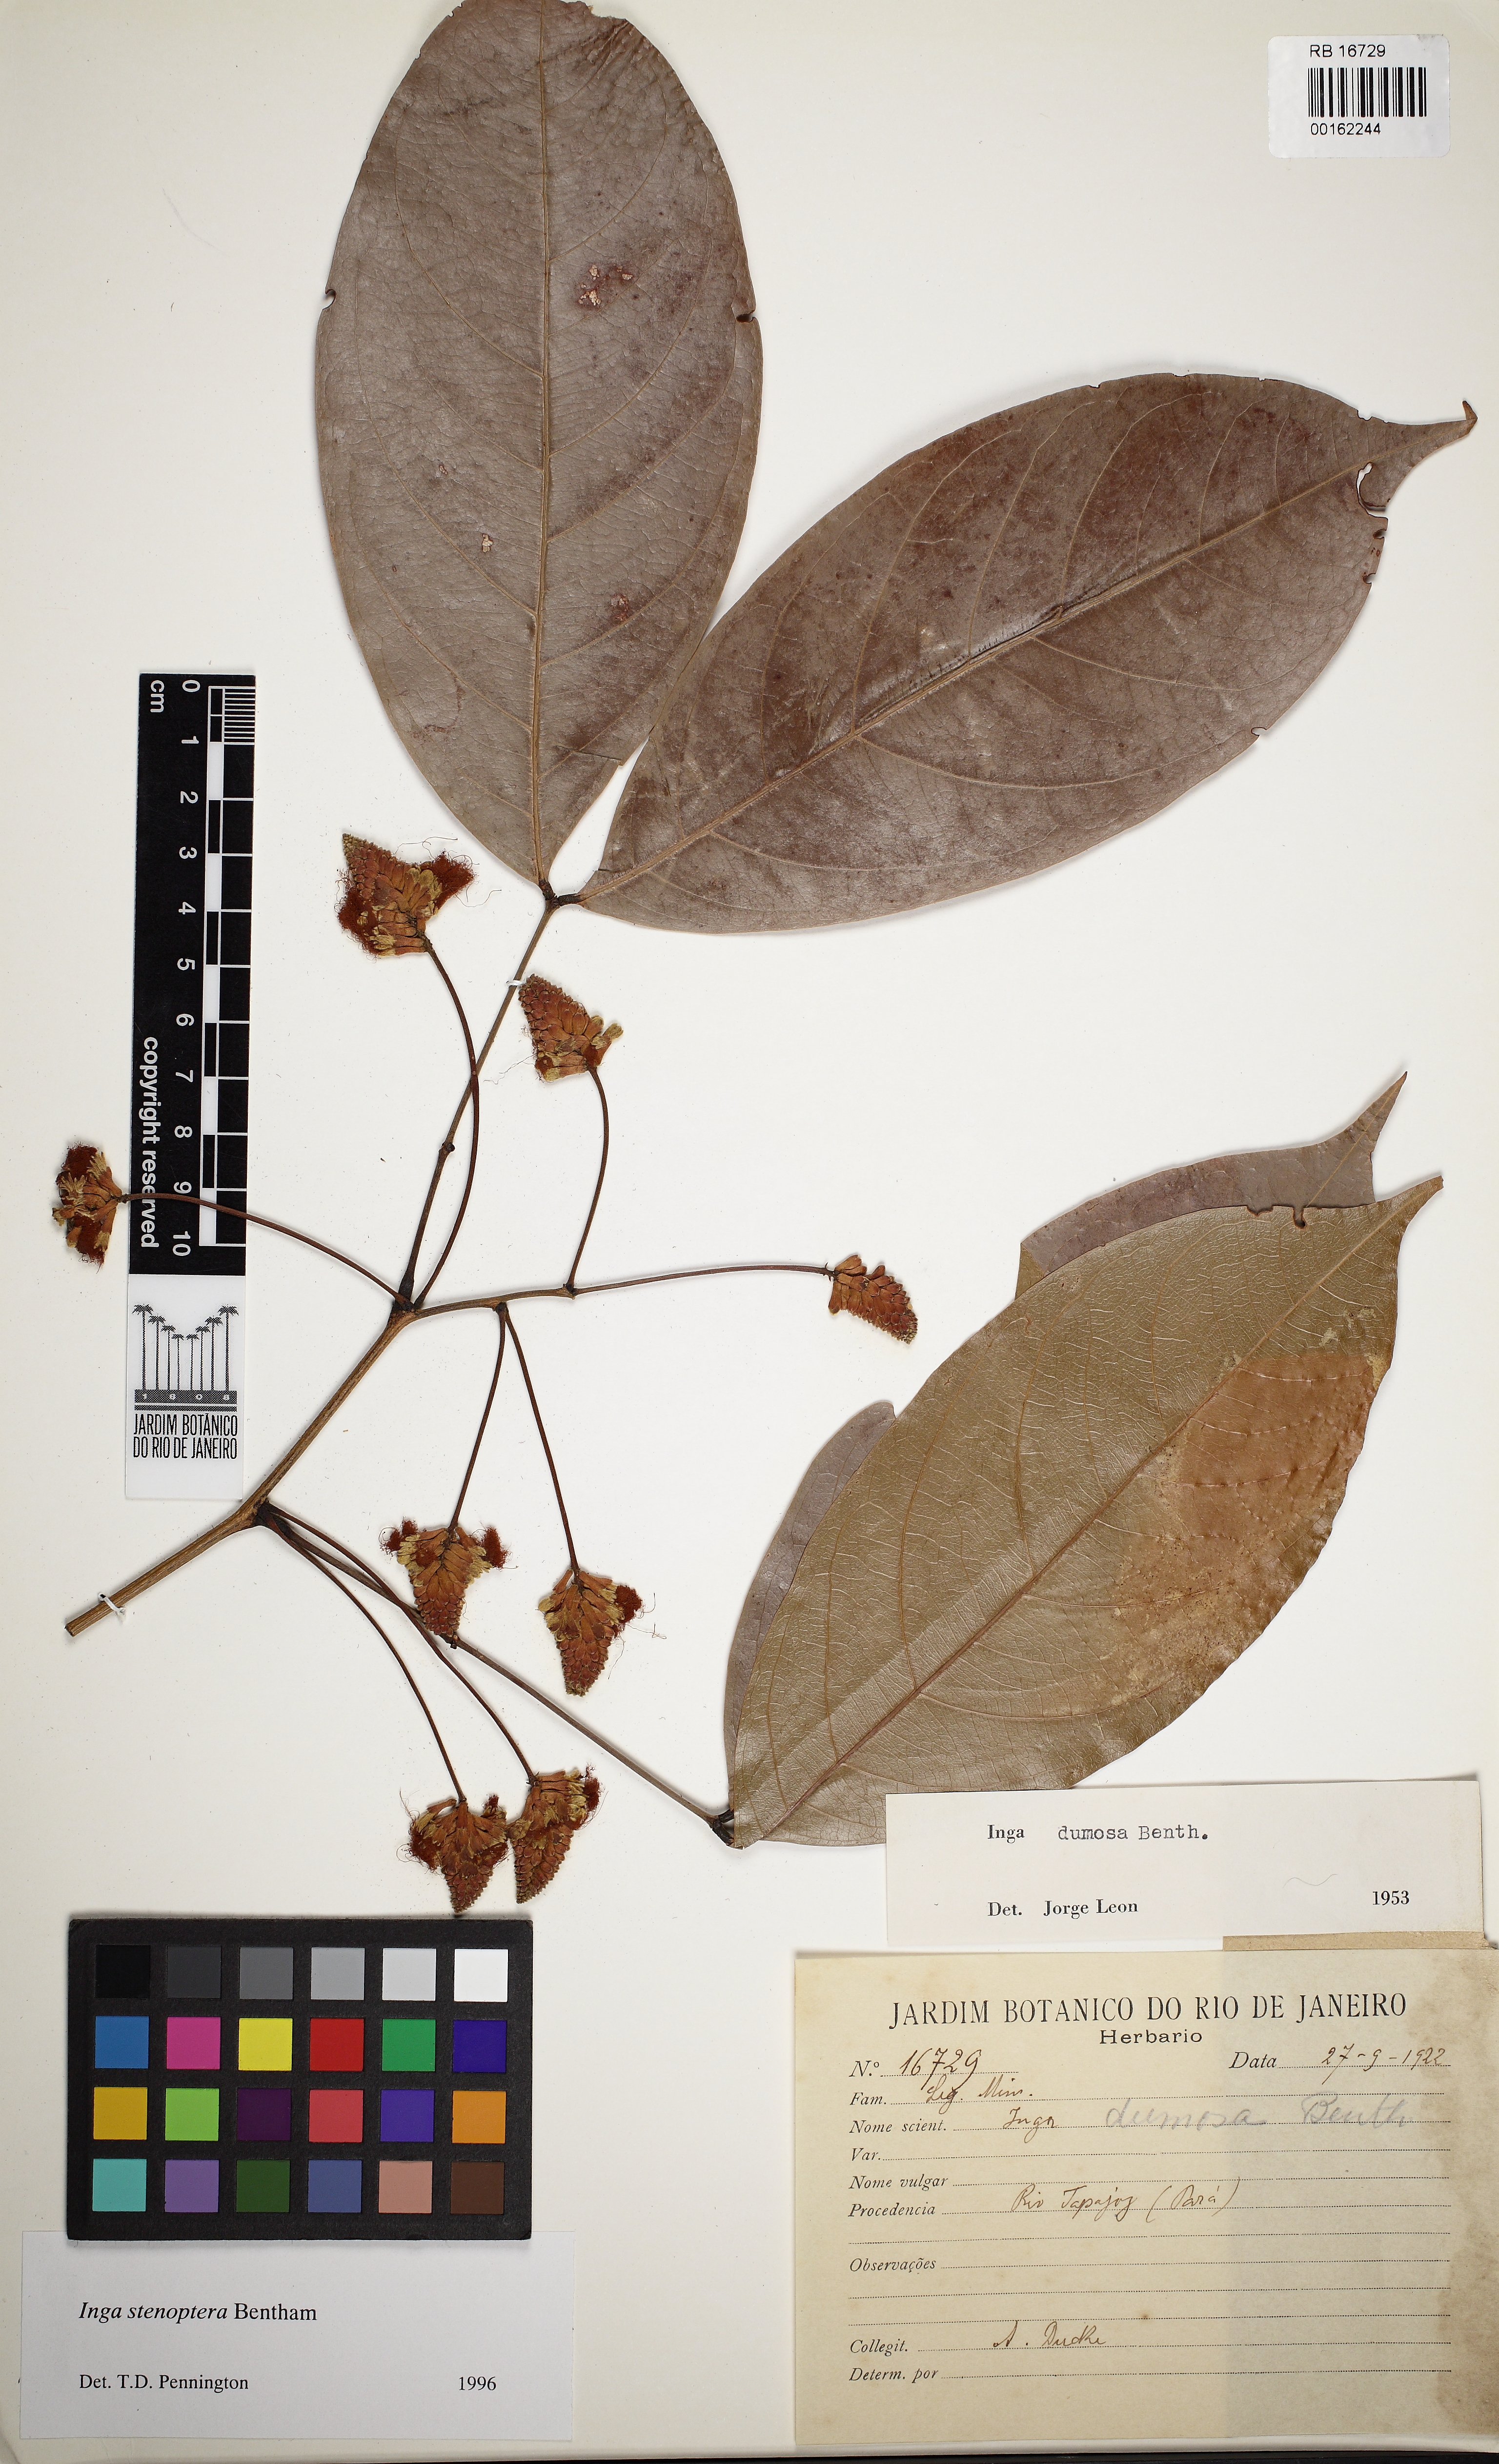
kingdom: Plantae
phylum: Tracheophyta
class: Magnoliopsida
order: Fabales
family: Fabaceae
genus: Inga
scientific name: Inga stenoptera
